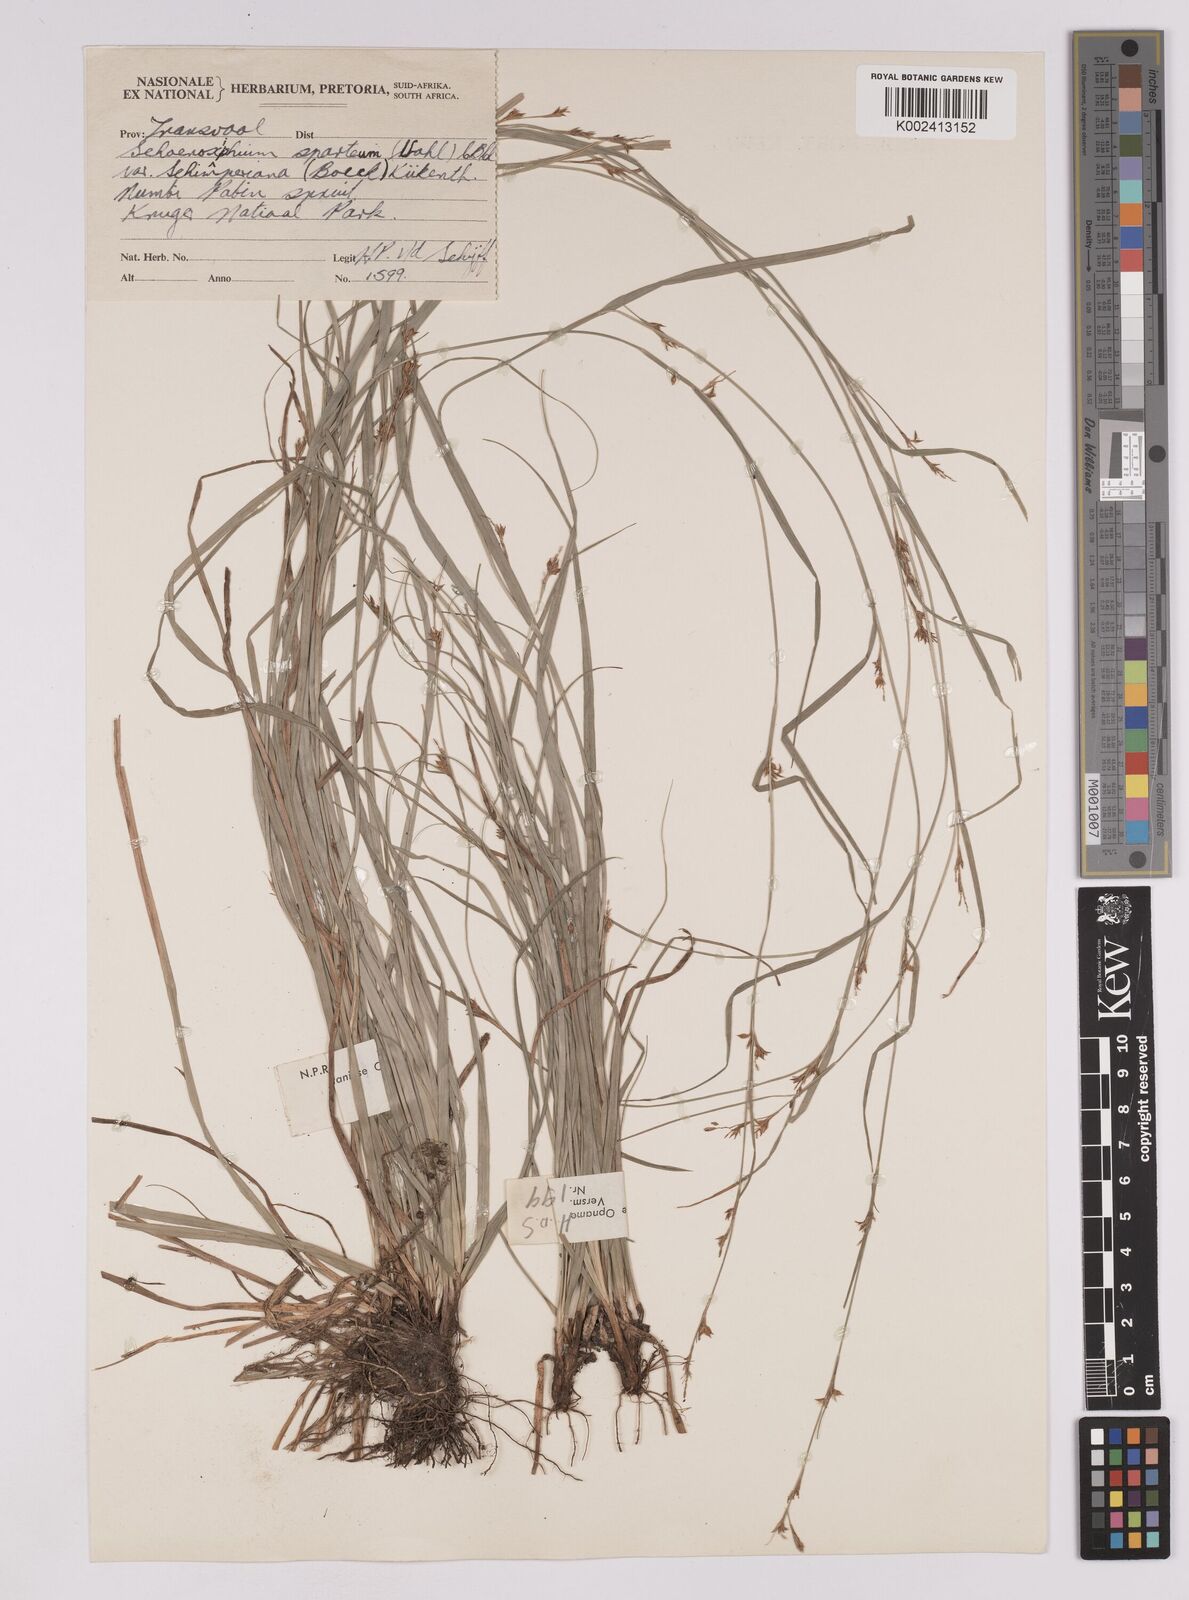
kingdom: Plantae
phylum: Tracheophyta
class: Liliopsida
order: Poales
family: Cyperaceae
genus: Carex
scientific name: Carex spartea
